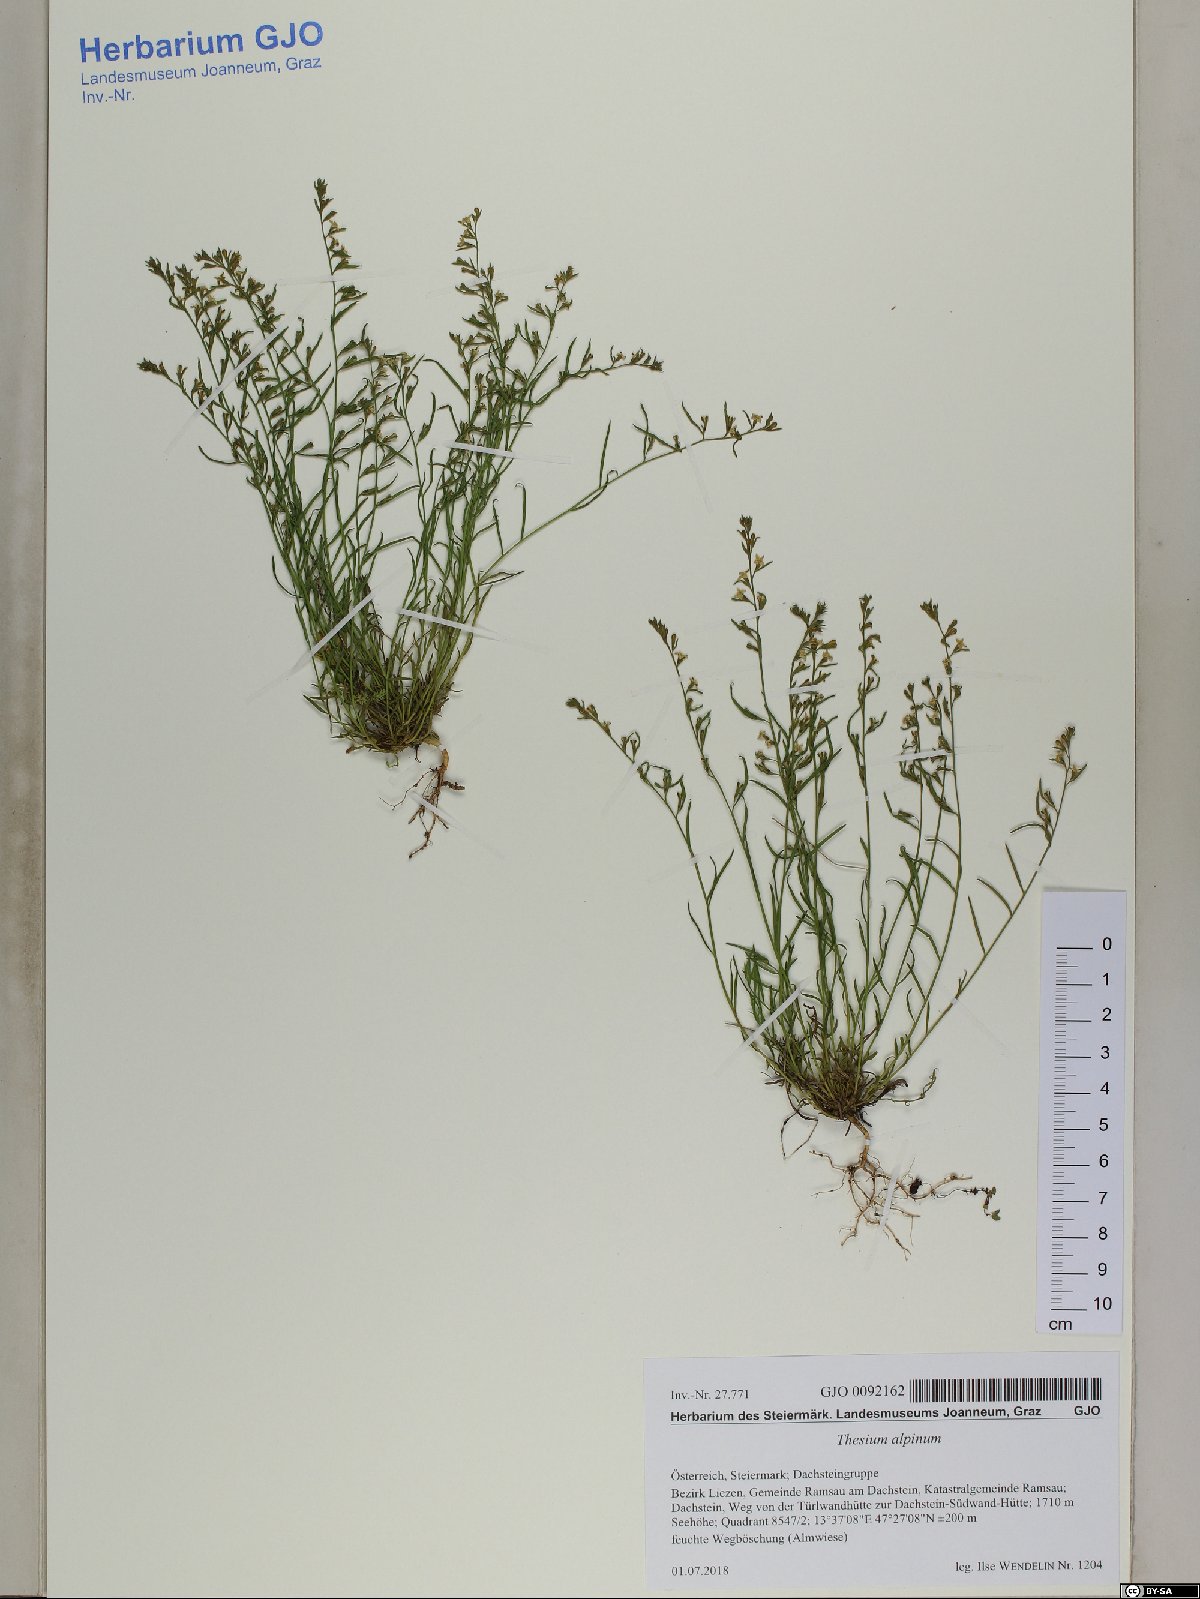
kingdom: Plantae
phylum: Tracheophyta
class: Magnoliopsida
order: Santalales
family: Thesiaceae
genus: Thesium
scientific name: Thesium alpinum
